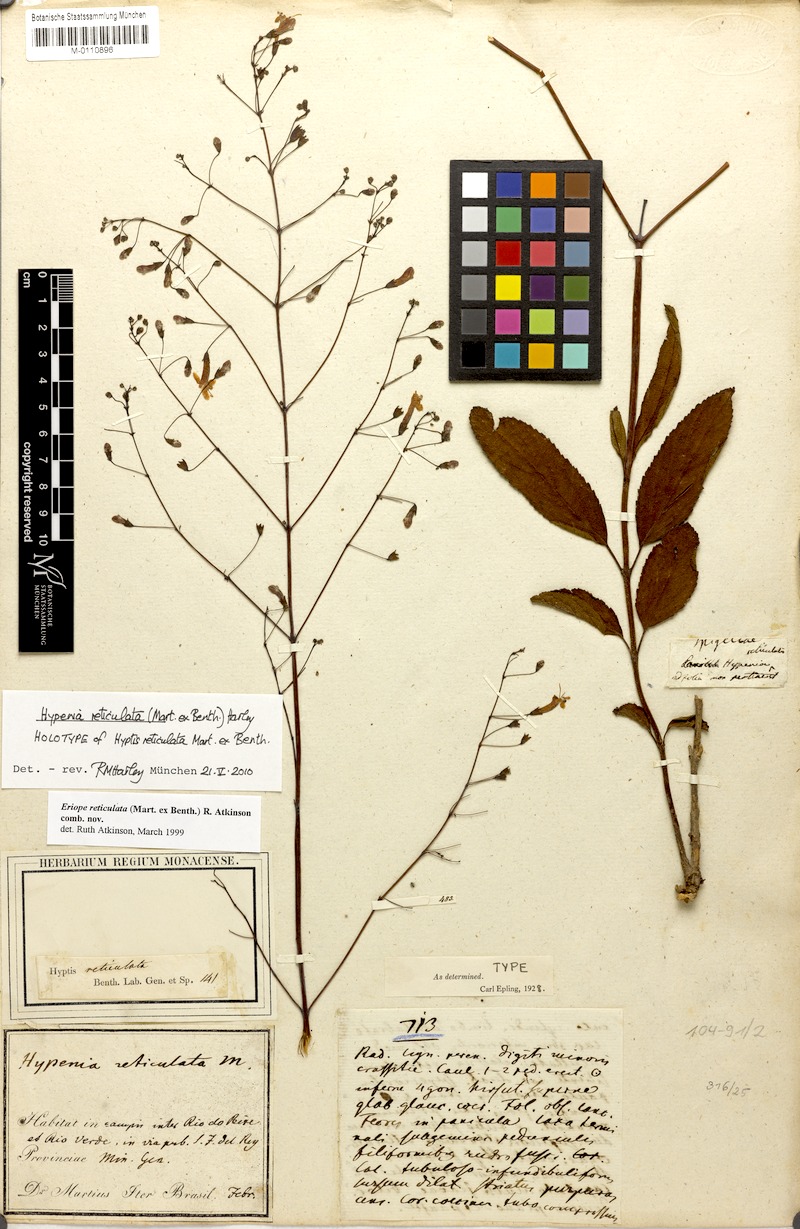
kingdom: Plantae
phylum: Tracheophyta
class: Magnoliopsida
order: Lamiales
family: Lamiaceae
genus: Hypenia
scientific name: Hypenia reticulata
